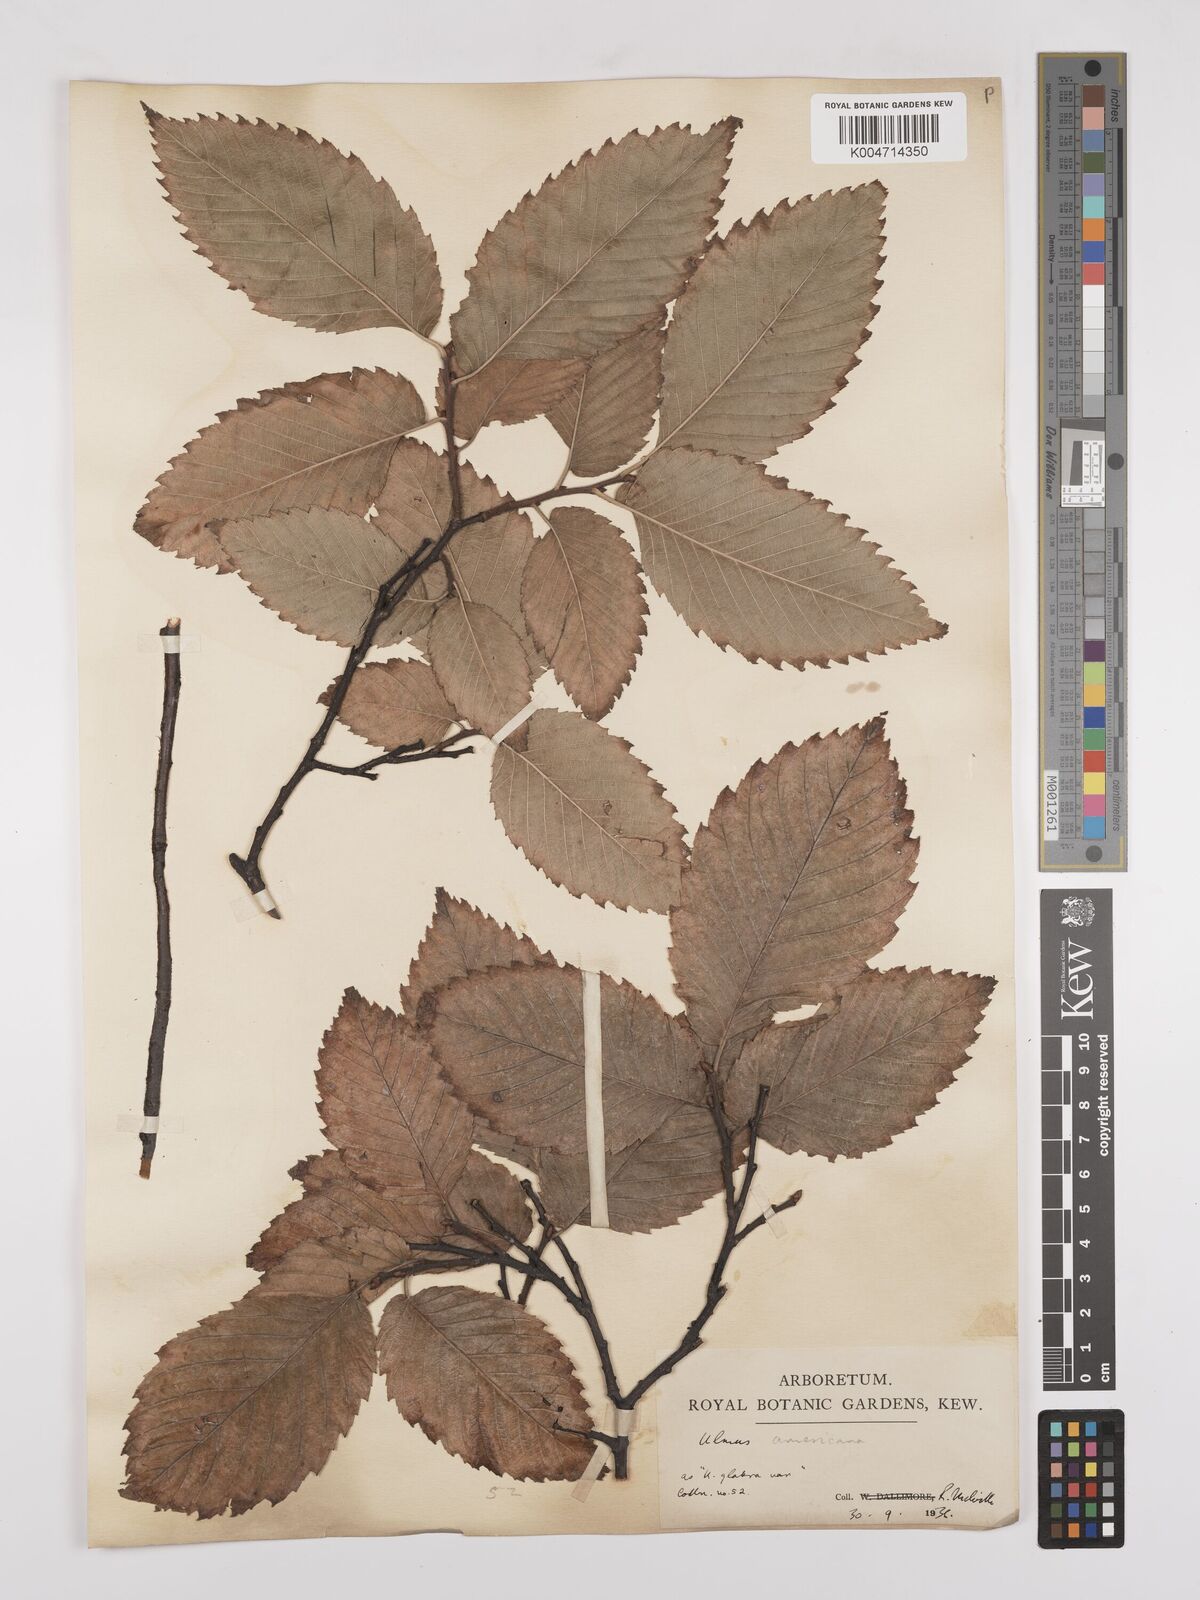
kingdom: Plantae
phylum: Tracheophyta
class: Magnoliopsida
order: Rosales
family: Ulmaceae
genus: Ulmus
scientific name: Ulmus americana
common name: American elm
